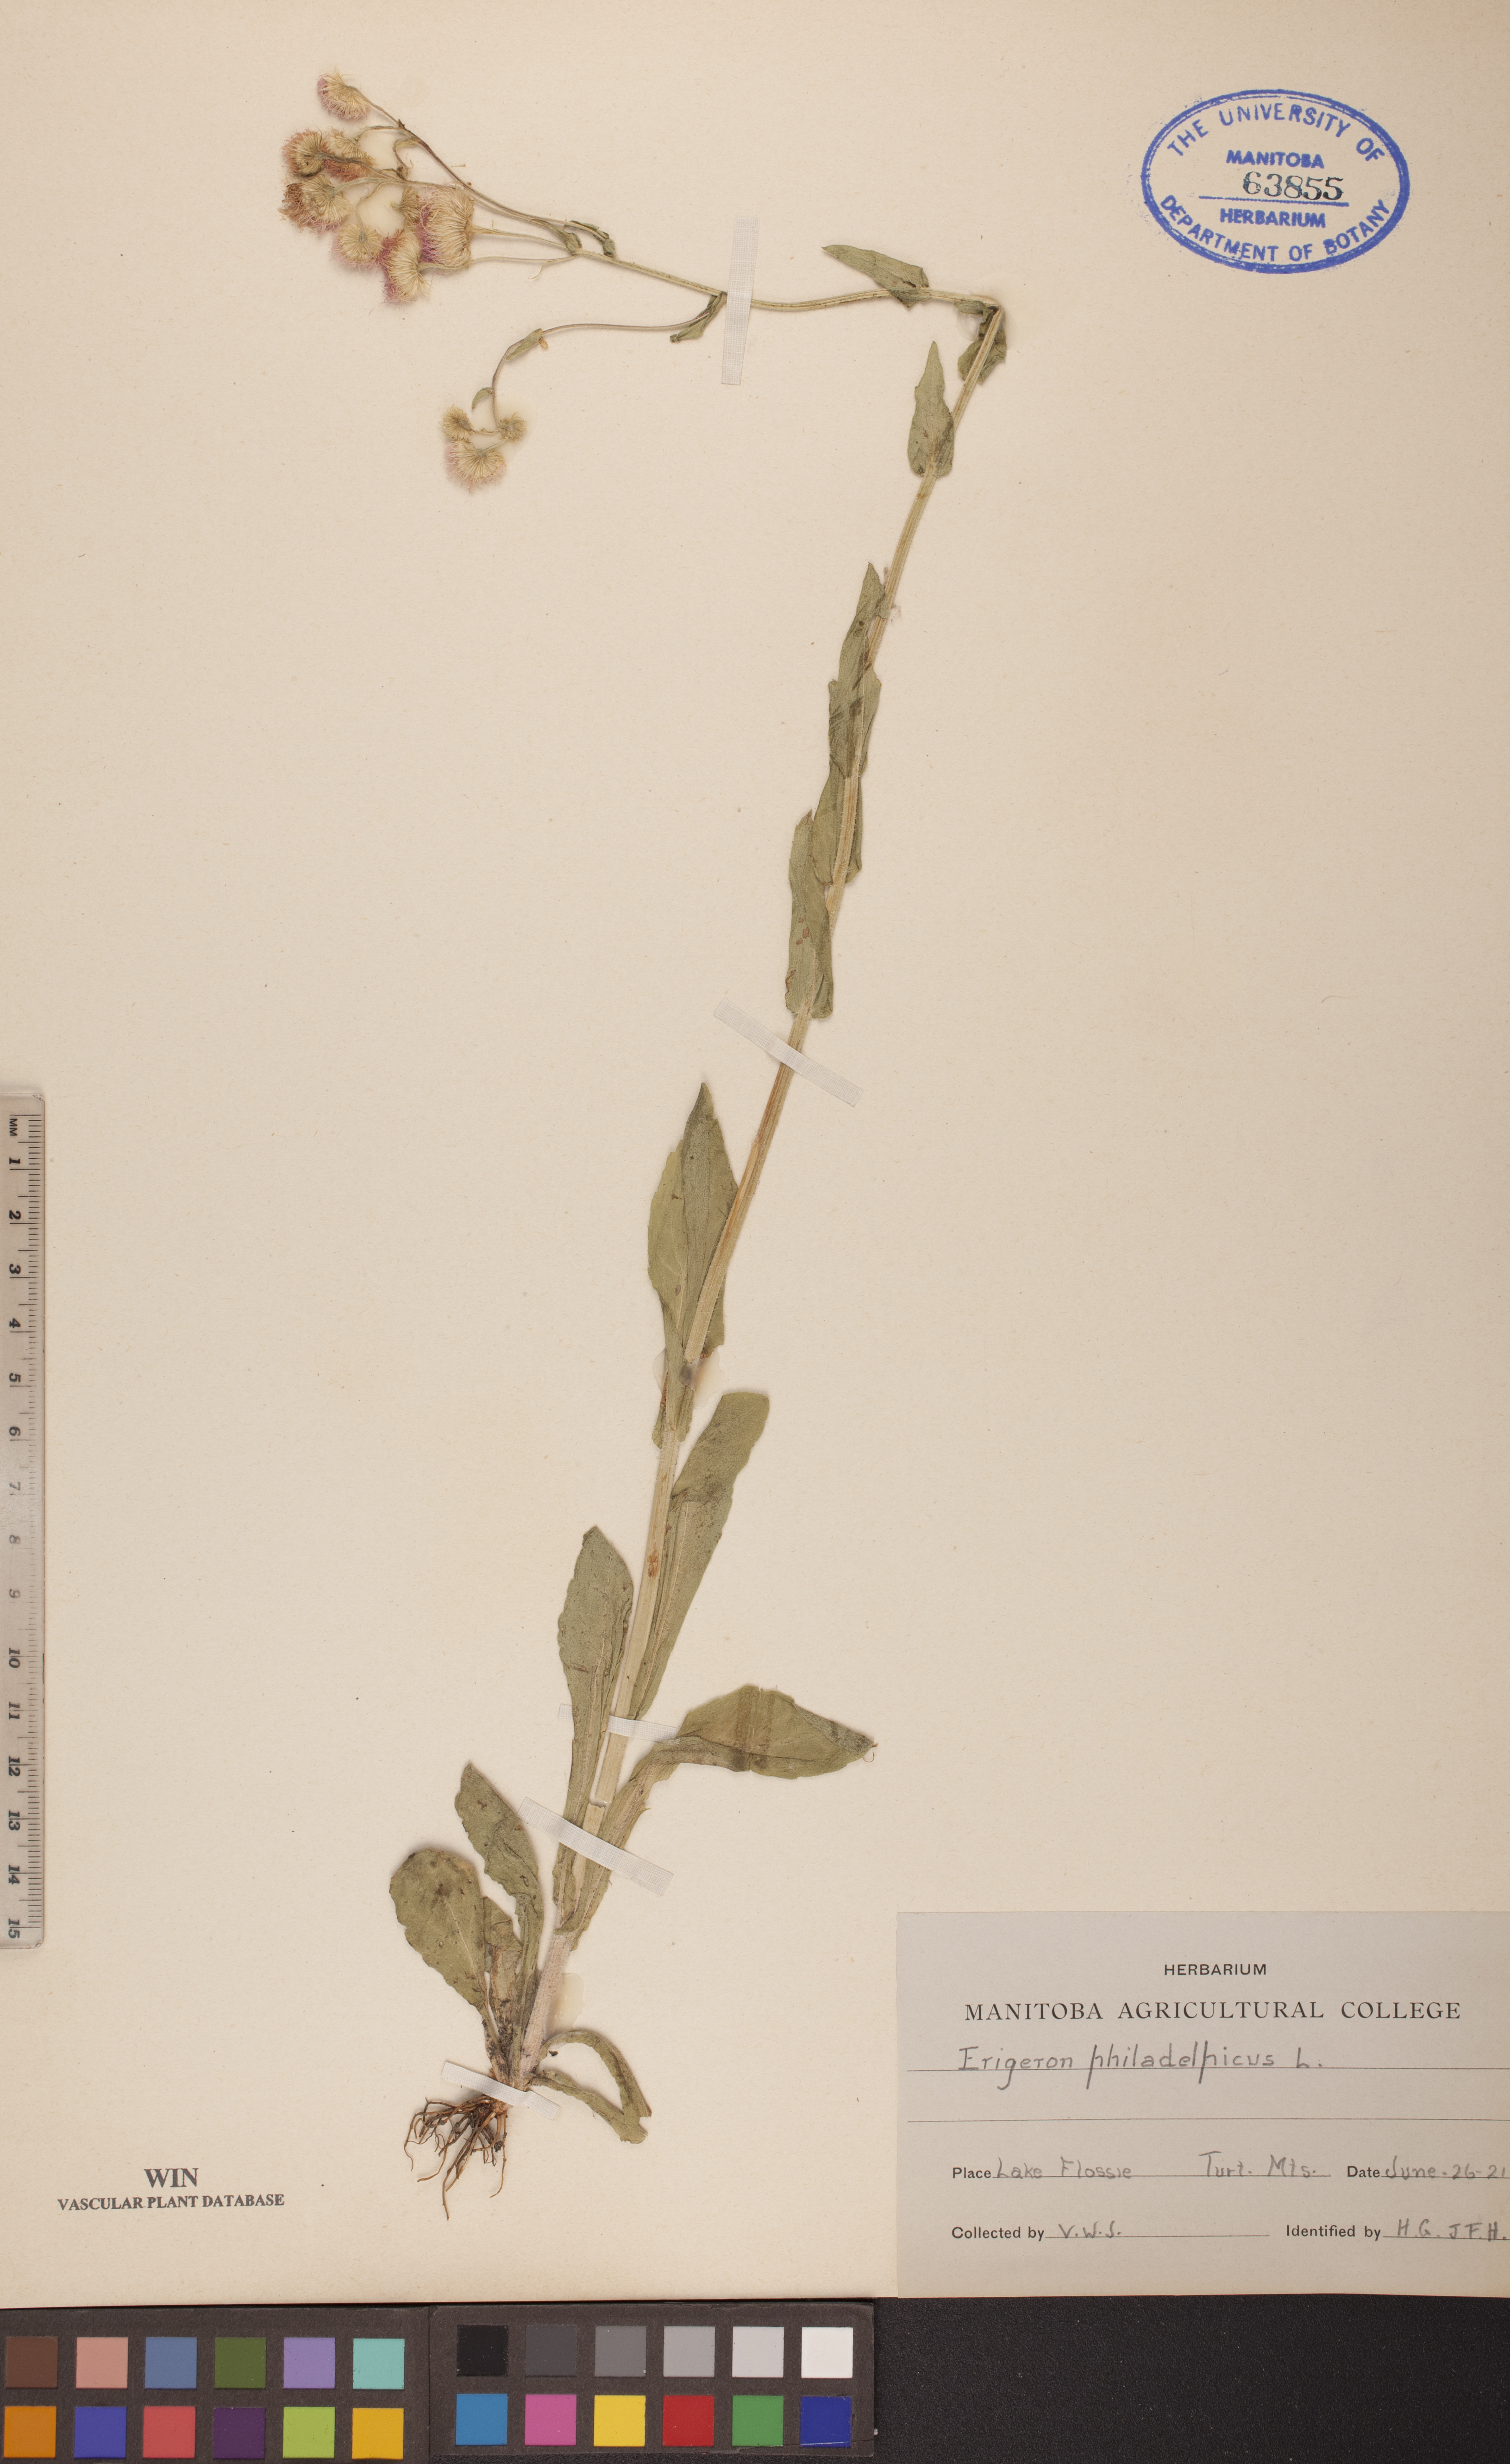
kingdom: Plantae
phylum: Tracheophyta
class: Magnoliopsida
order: Asterales
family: Asteraceae
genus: Erigeron
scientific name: Erigeron philadelphicus
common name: Robin's-plantain
